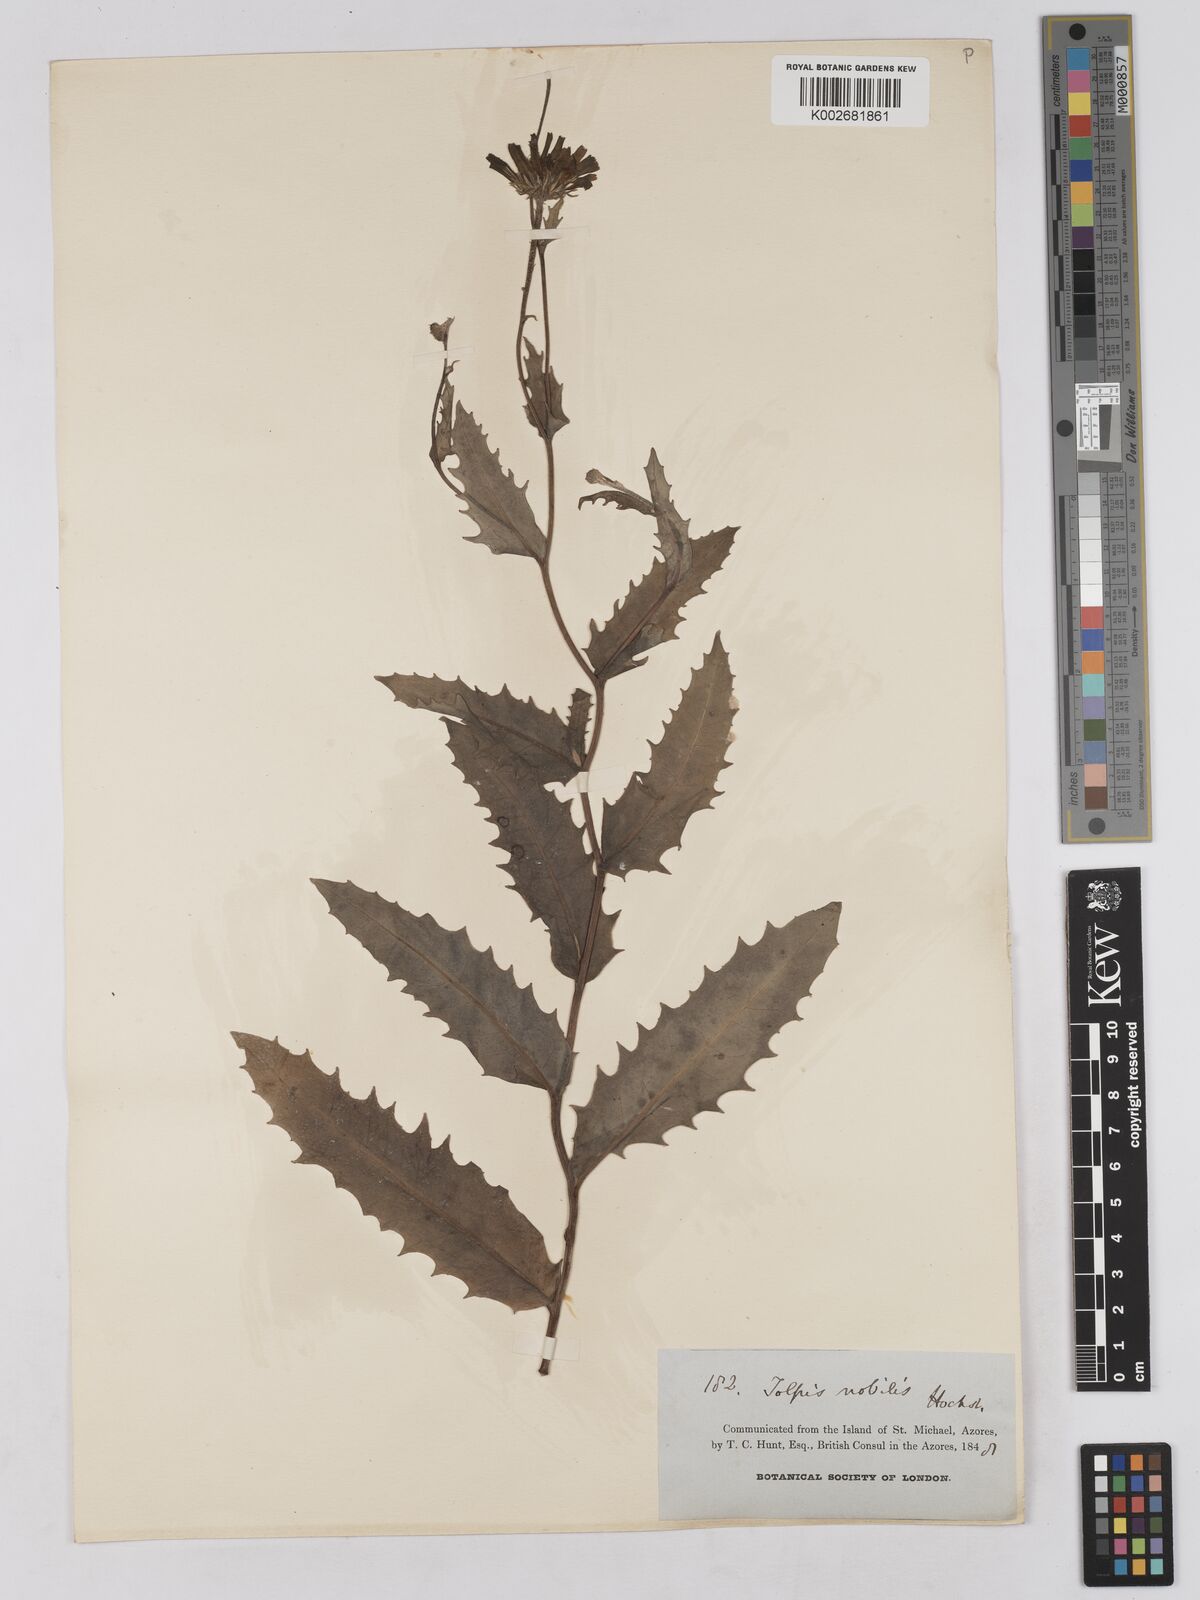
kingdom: Plantae
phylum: Tracheophyta
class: Magnoliopsida
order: Asterales
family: Asteraceae
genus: Tolpis
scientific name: Tolpis nobilis
